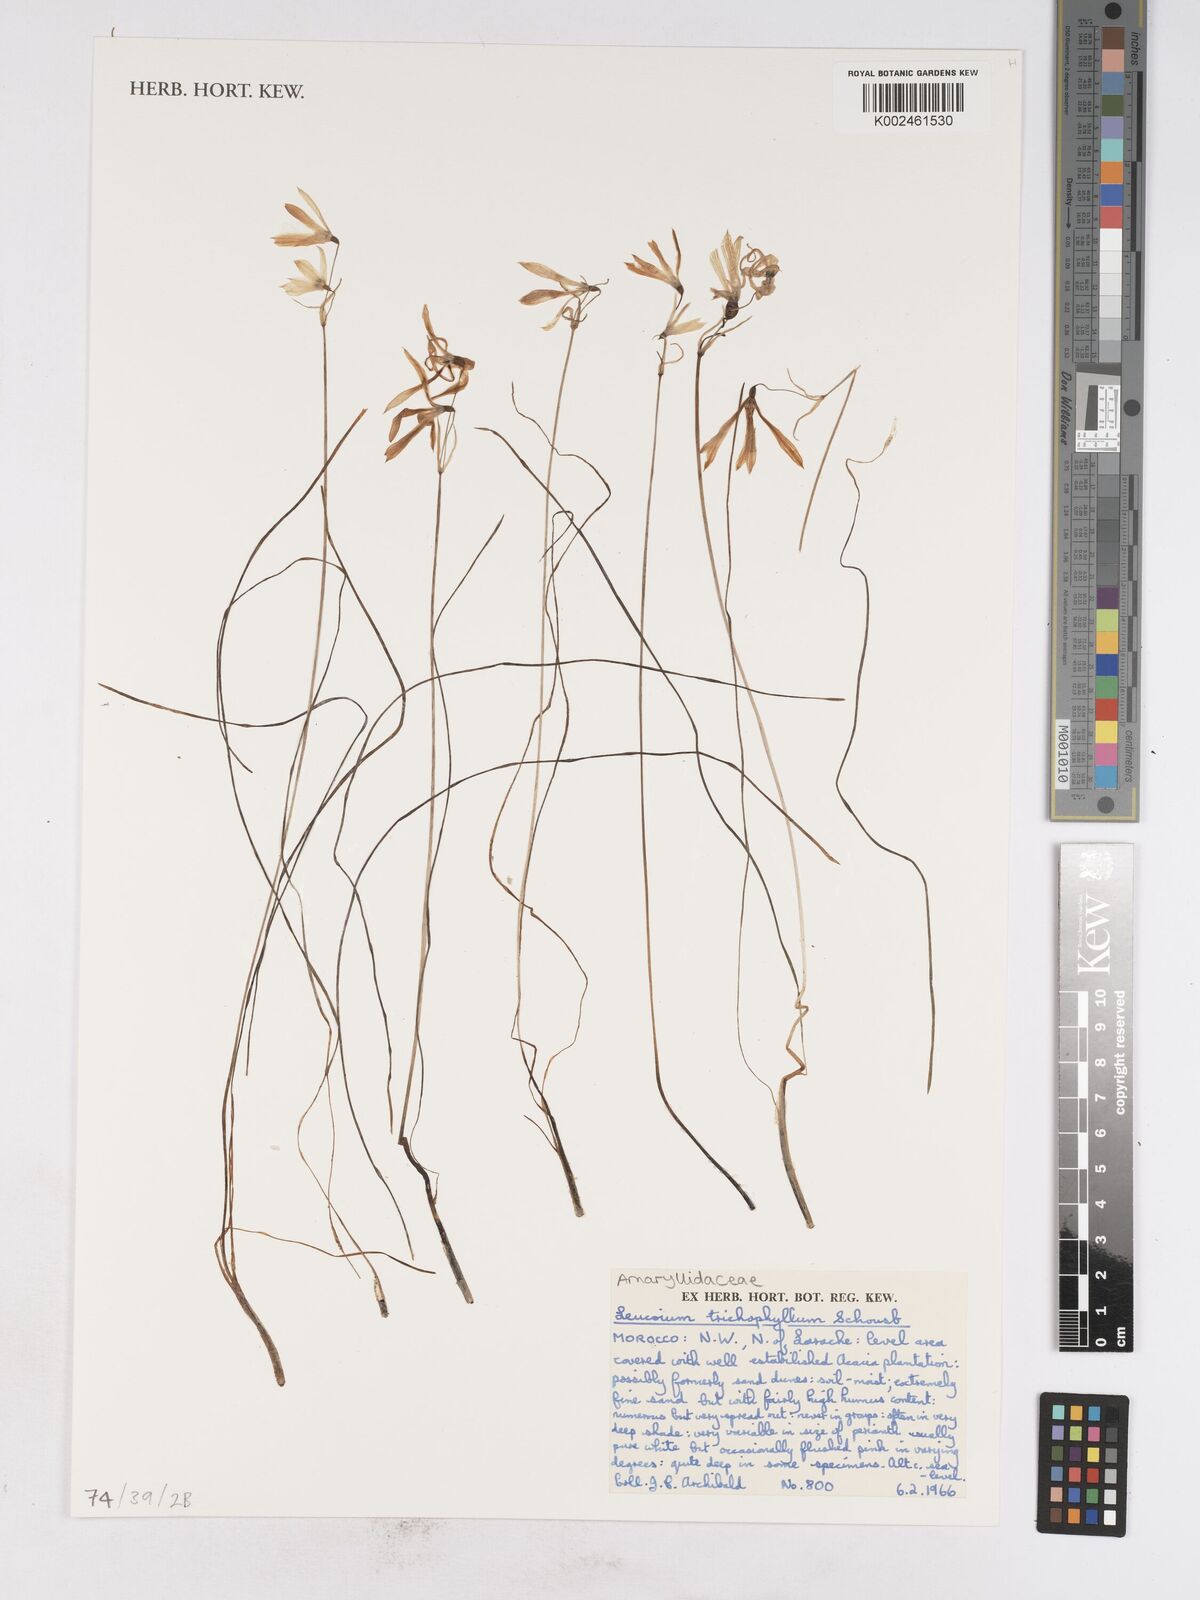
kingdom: Plantae
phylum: Tracheophyta
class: Liliopsida
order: Asparagales
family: Amaryllidaceae
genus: Acis
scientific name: Acis trichophylla
